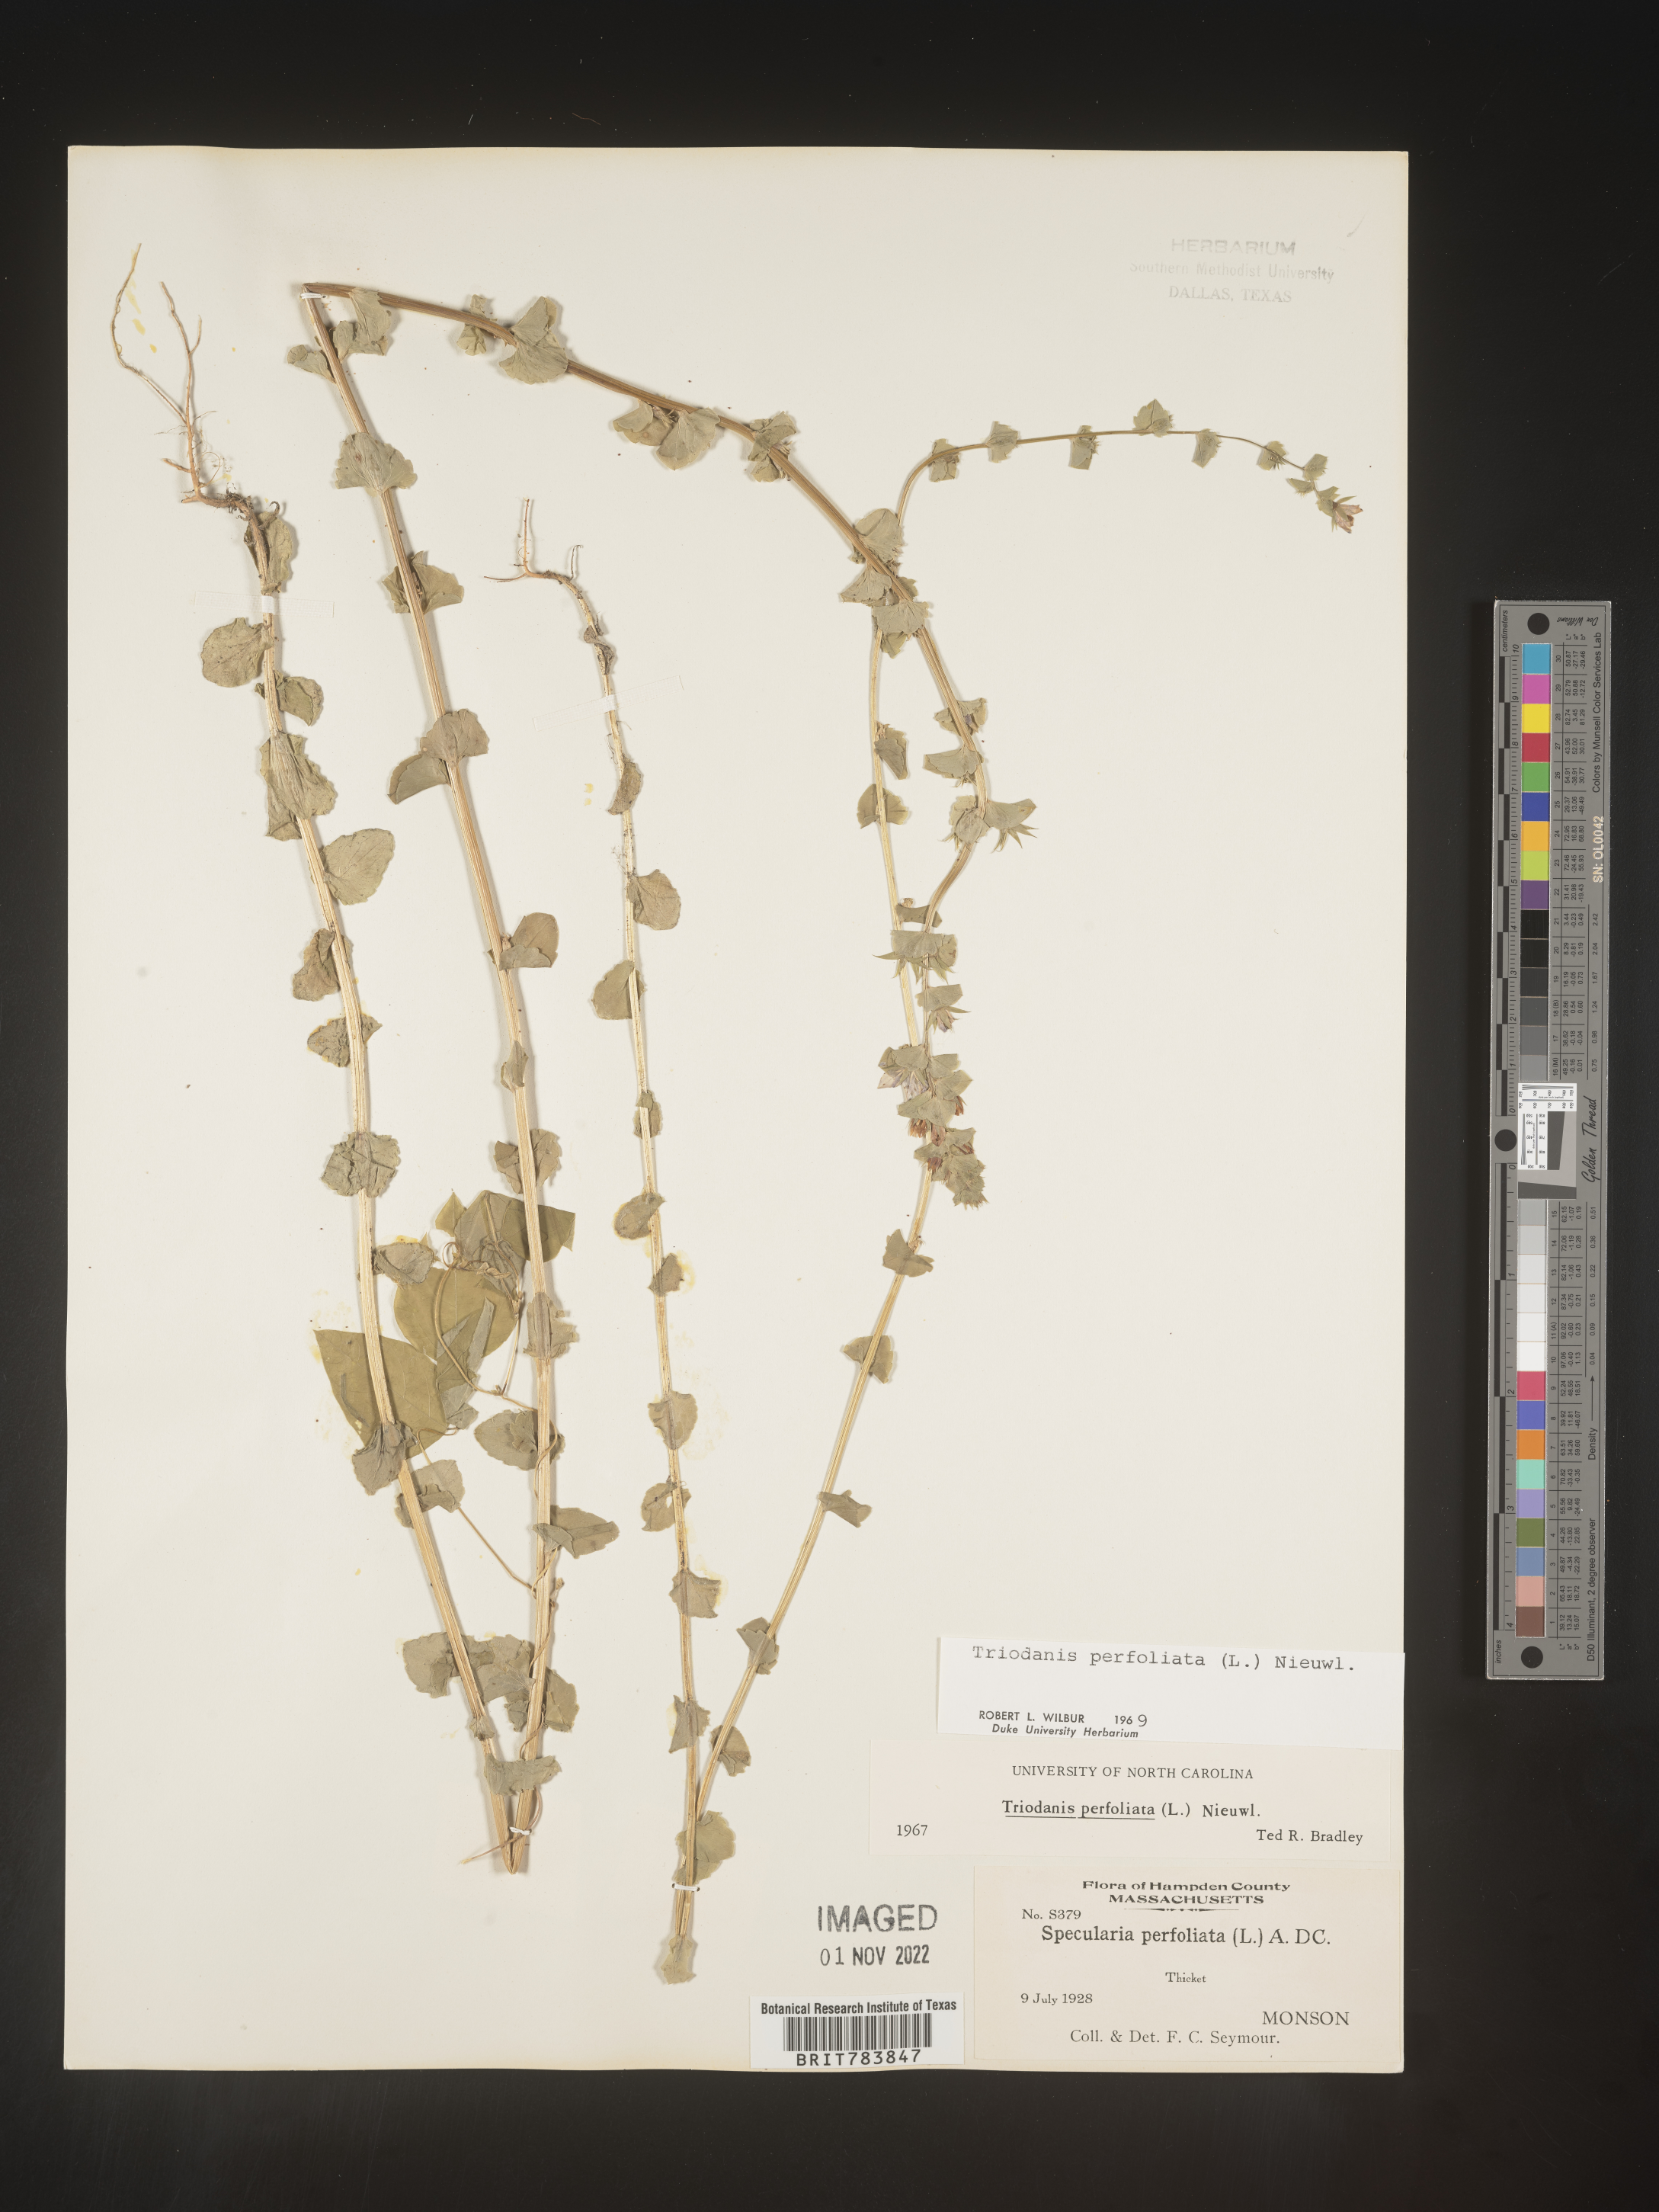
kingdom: Plantae
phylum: Tracheophyta
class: Magnoliopsida
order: Asterales
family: Campanulaceae
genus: Triodanis
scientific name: Triodanis perfoliata
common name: Clasping venus' looking-glass
